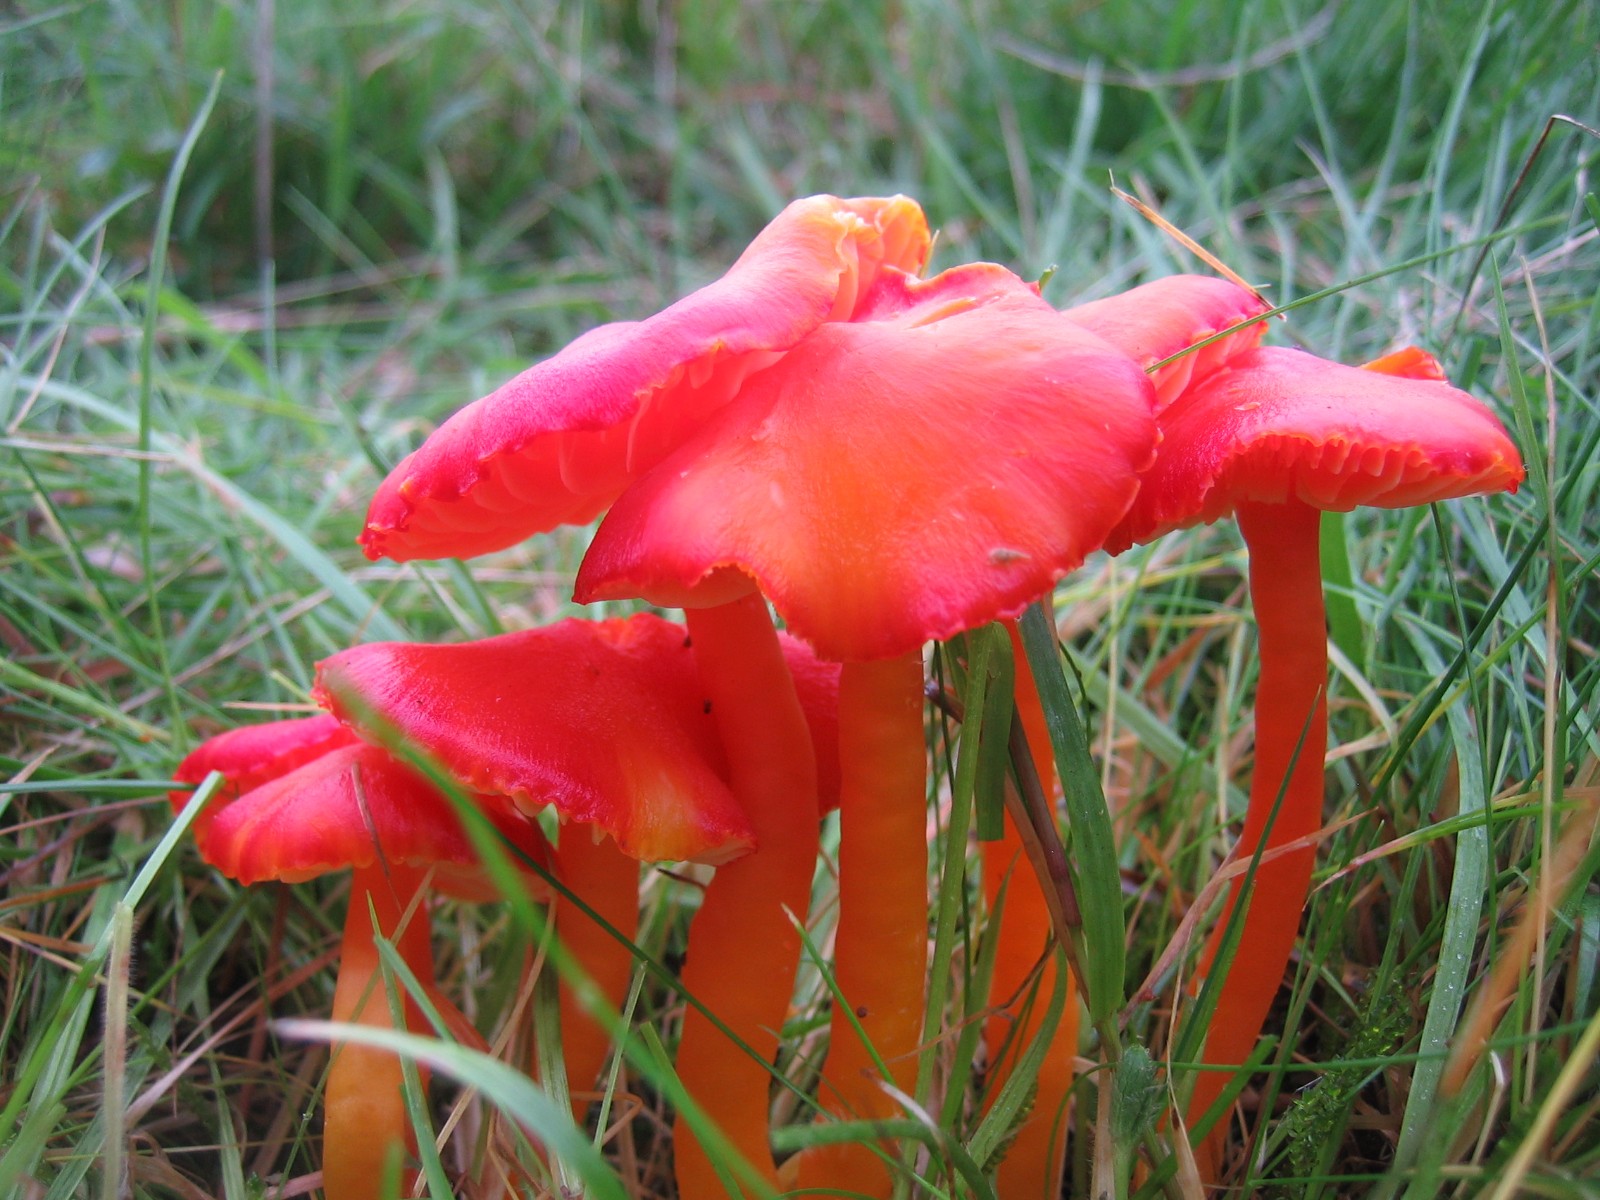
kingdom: Fungi
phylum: Basidiomycota
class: Agaricomycetes
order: Agaricales
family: Hygrophoraceae
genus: Hygrocybe
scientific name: Hygrocybe coccinea
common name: cinnober-vokshat
